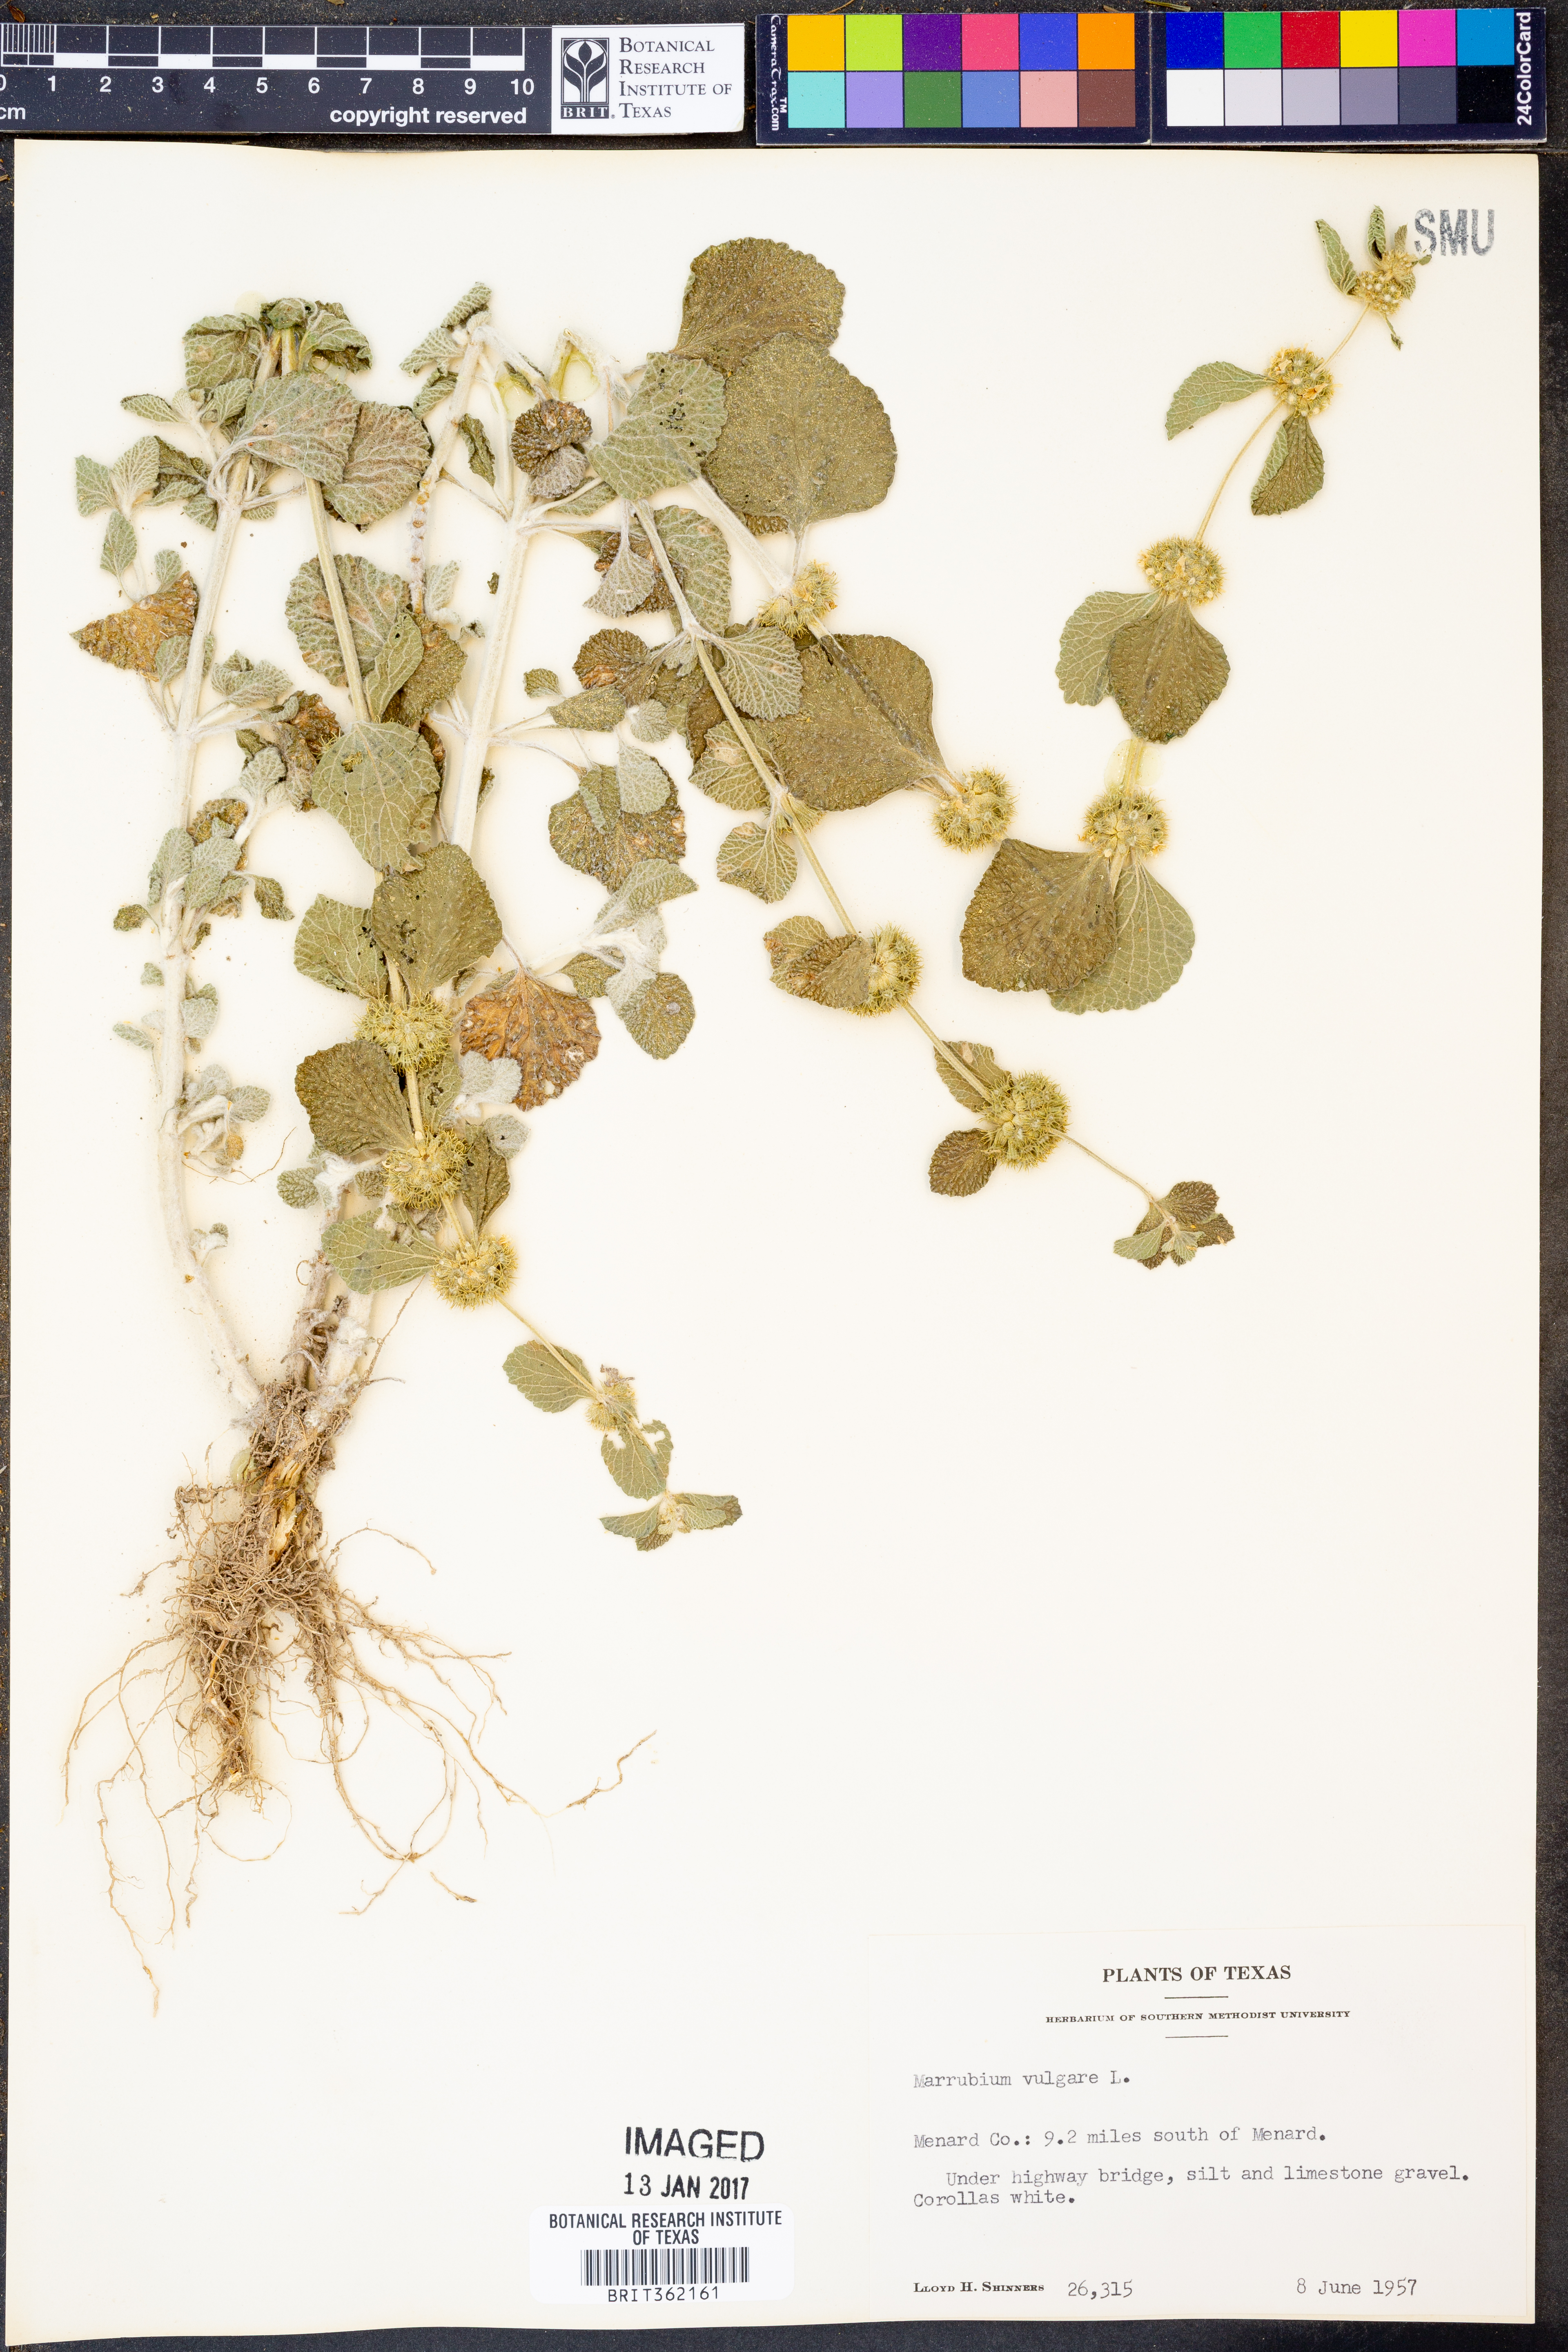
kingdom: Plantae
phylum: Tracheophyta
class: Magnoliopsida
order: Lamiales
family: Lamiaceae
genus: Marrubium
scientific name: Marrubium vulgare
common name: Horehound
